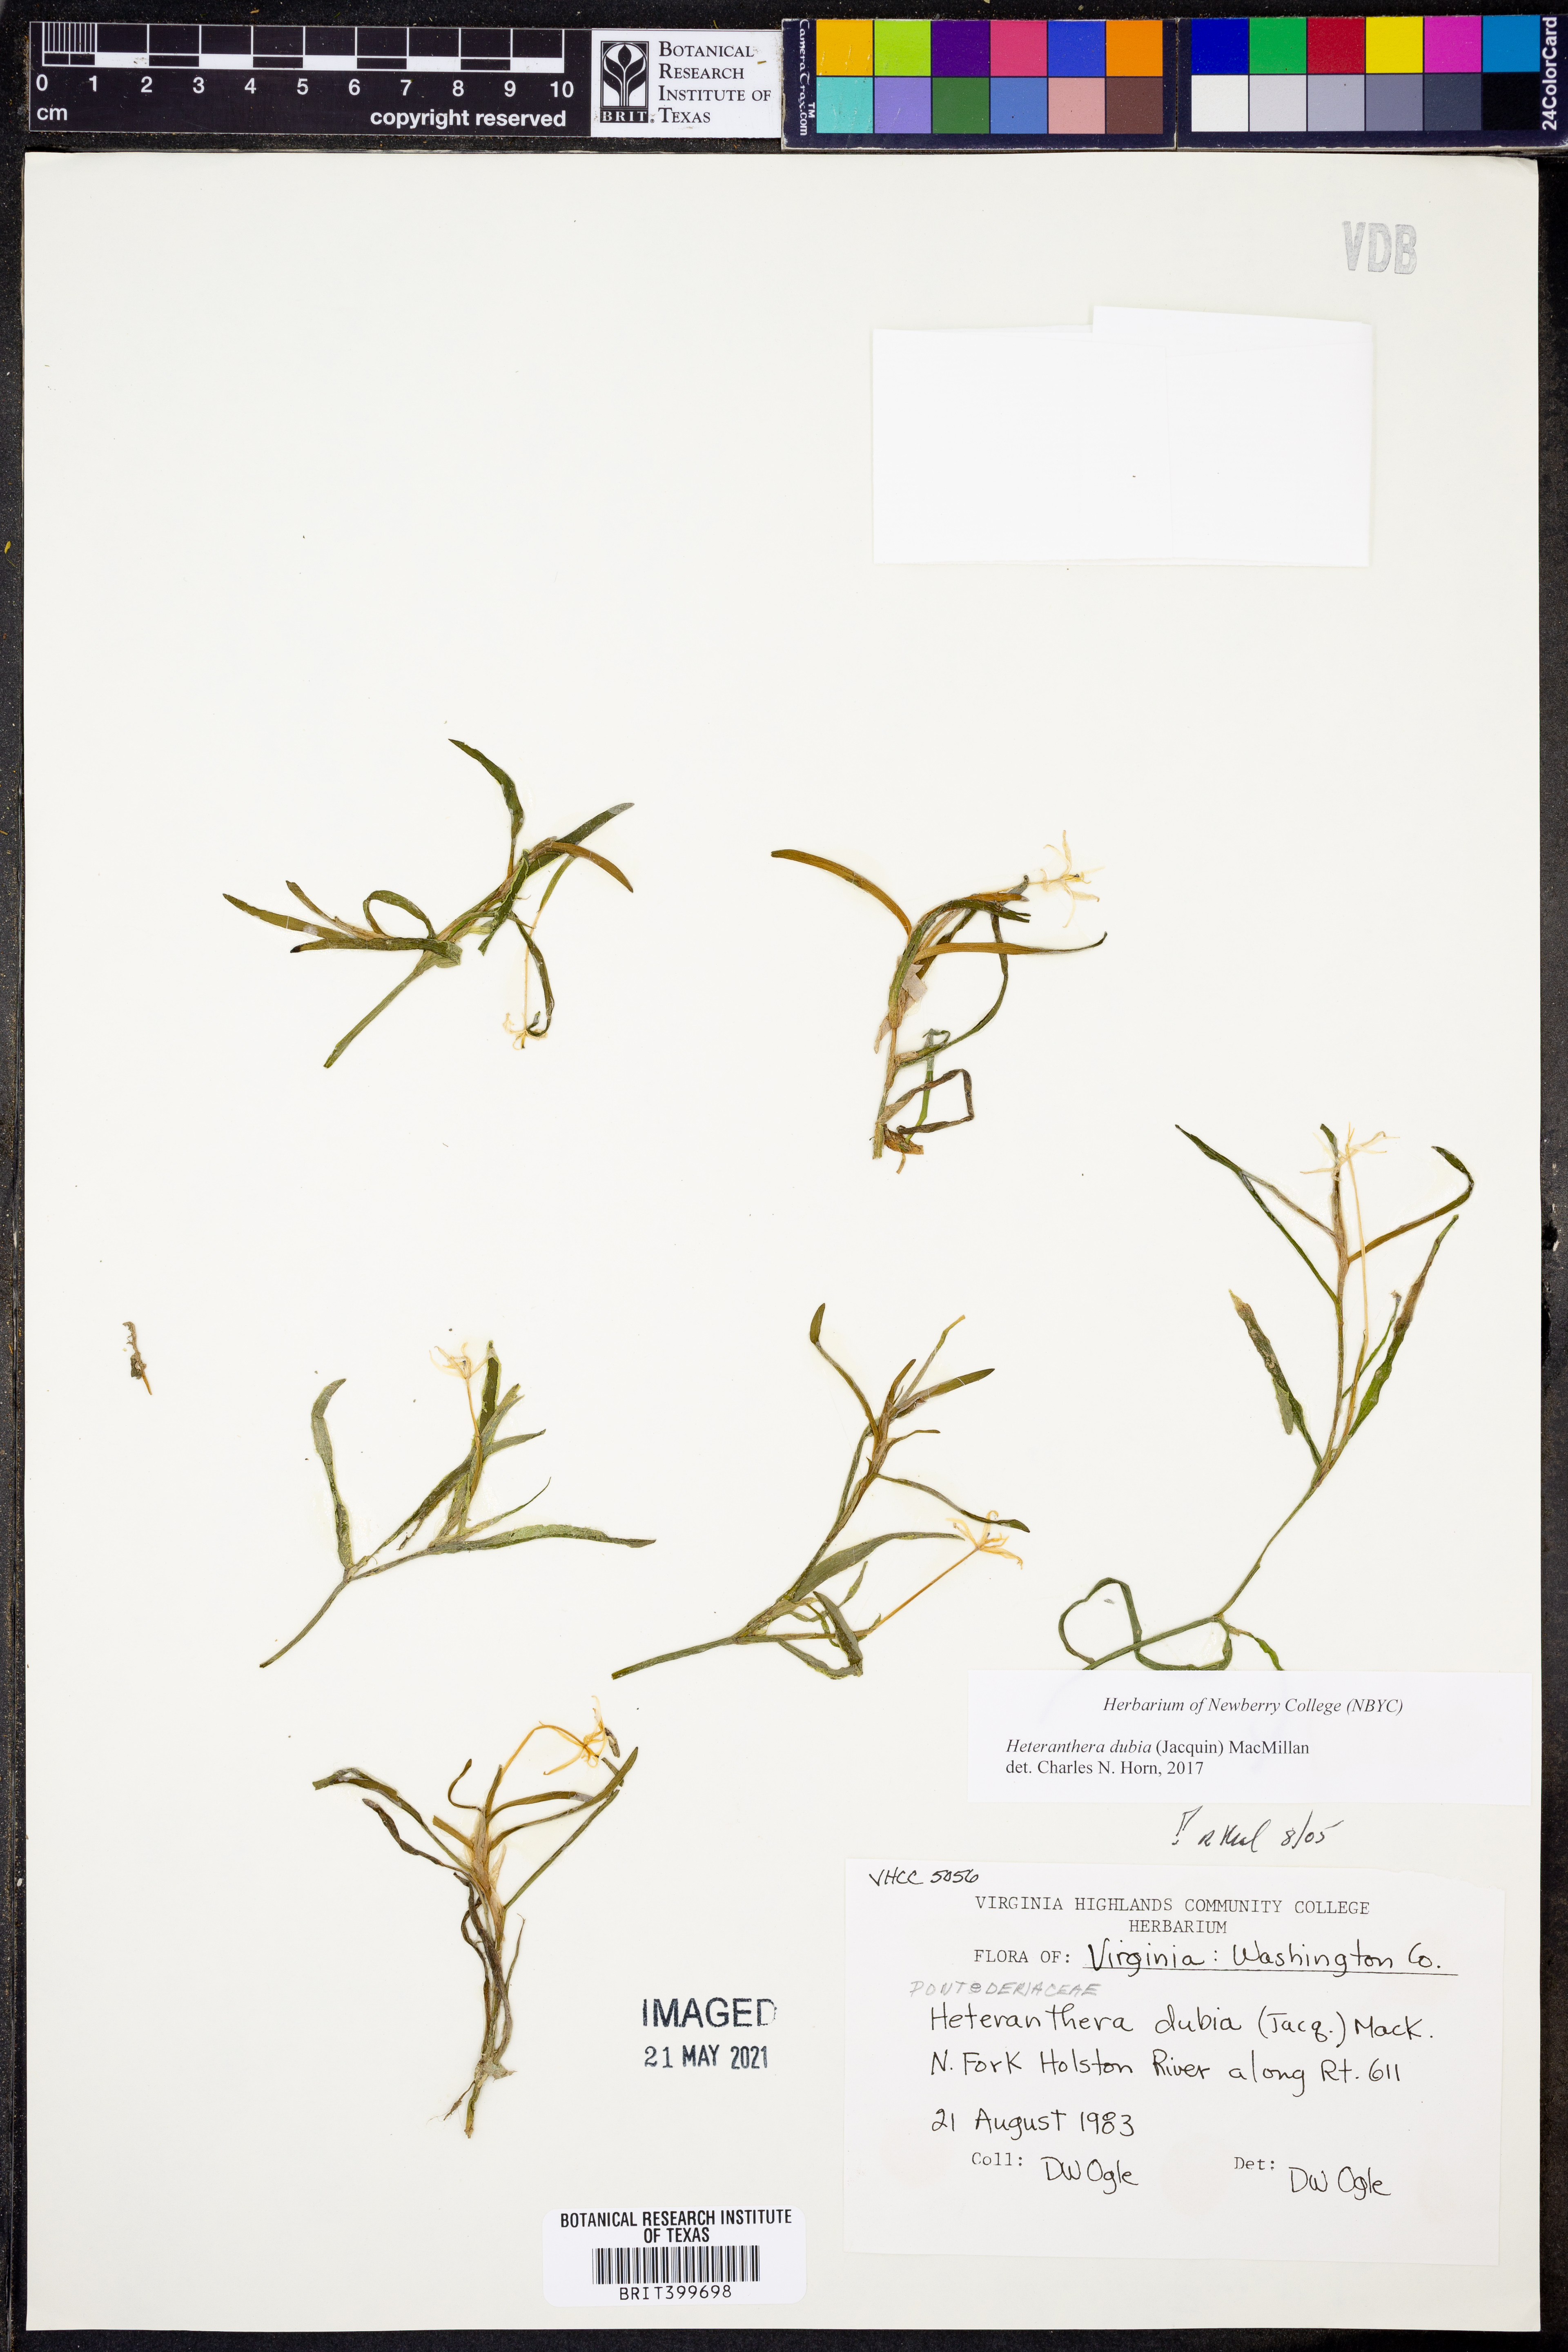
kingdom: Plantae
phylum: Tracheophyta
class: Liliopsida
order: Commelinales
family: Pontederiaceae
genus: Heteranthera
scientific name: Heteranthera dubia
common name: Grass-leaved mud plantain
